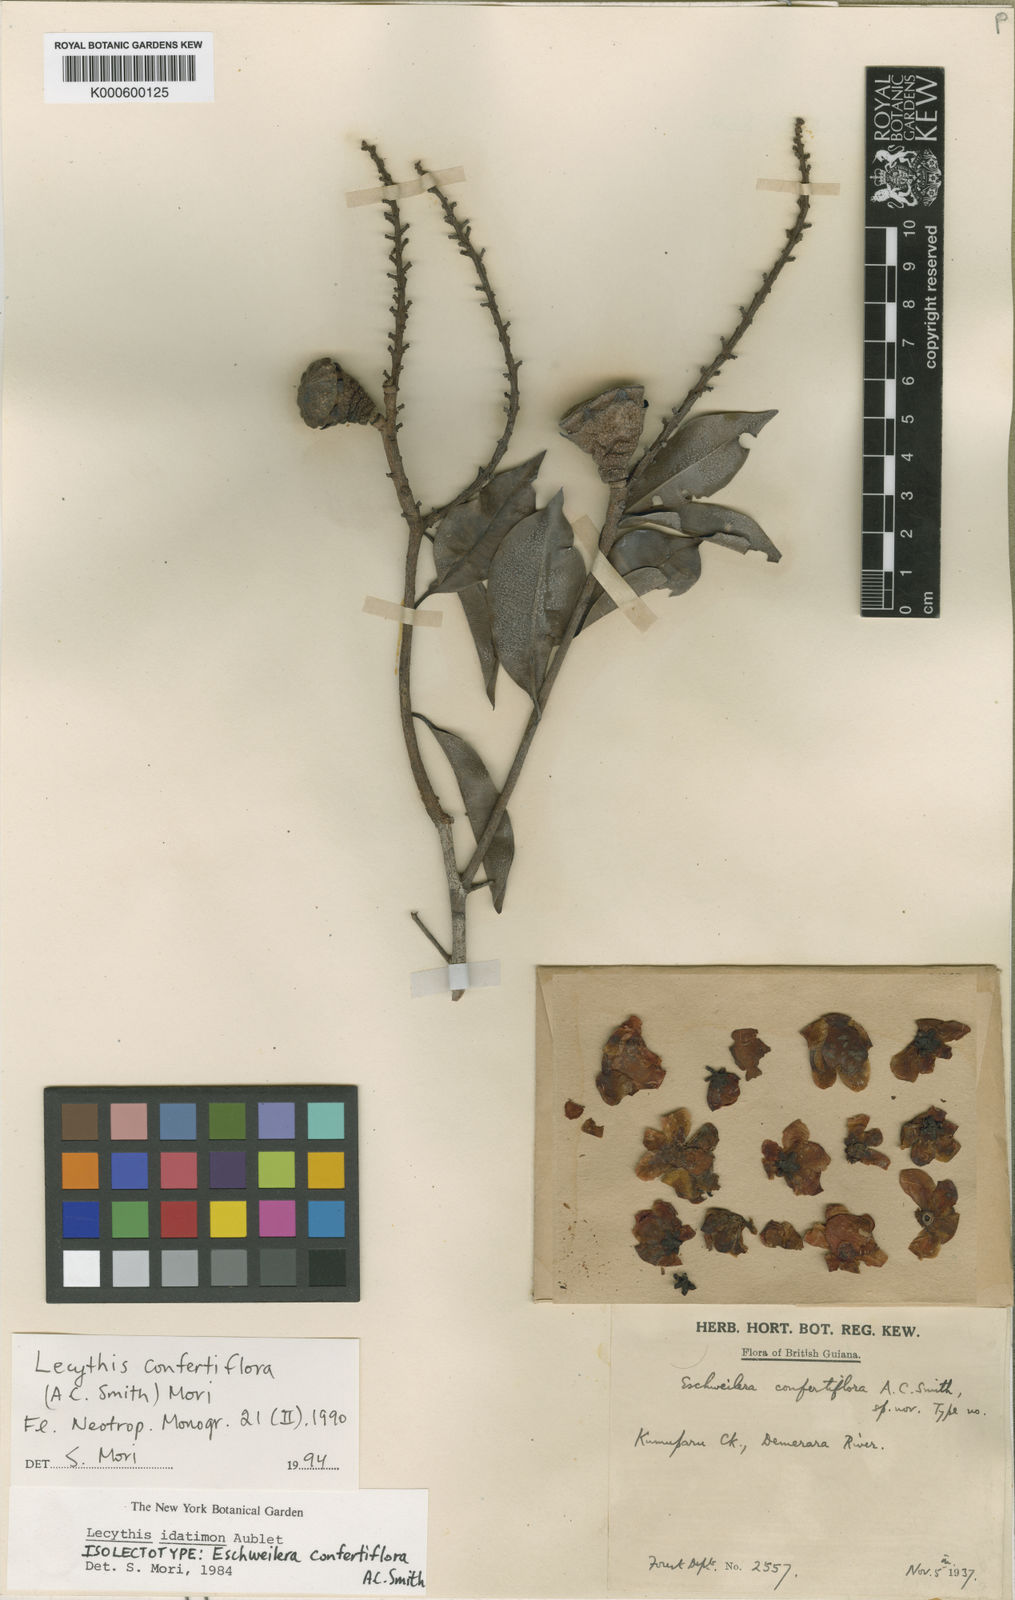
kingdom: Plantae
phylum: Tracheophyta
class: Magnoliopsida
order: Ericales
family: Lecythidaceae
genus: Lecythis
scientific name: Lecythis confertiflora
